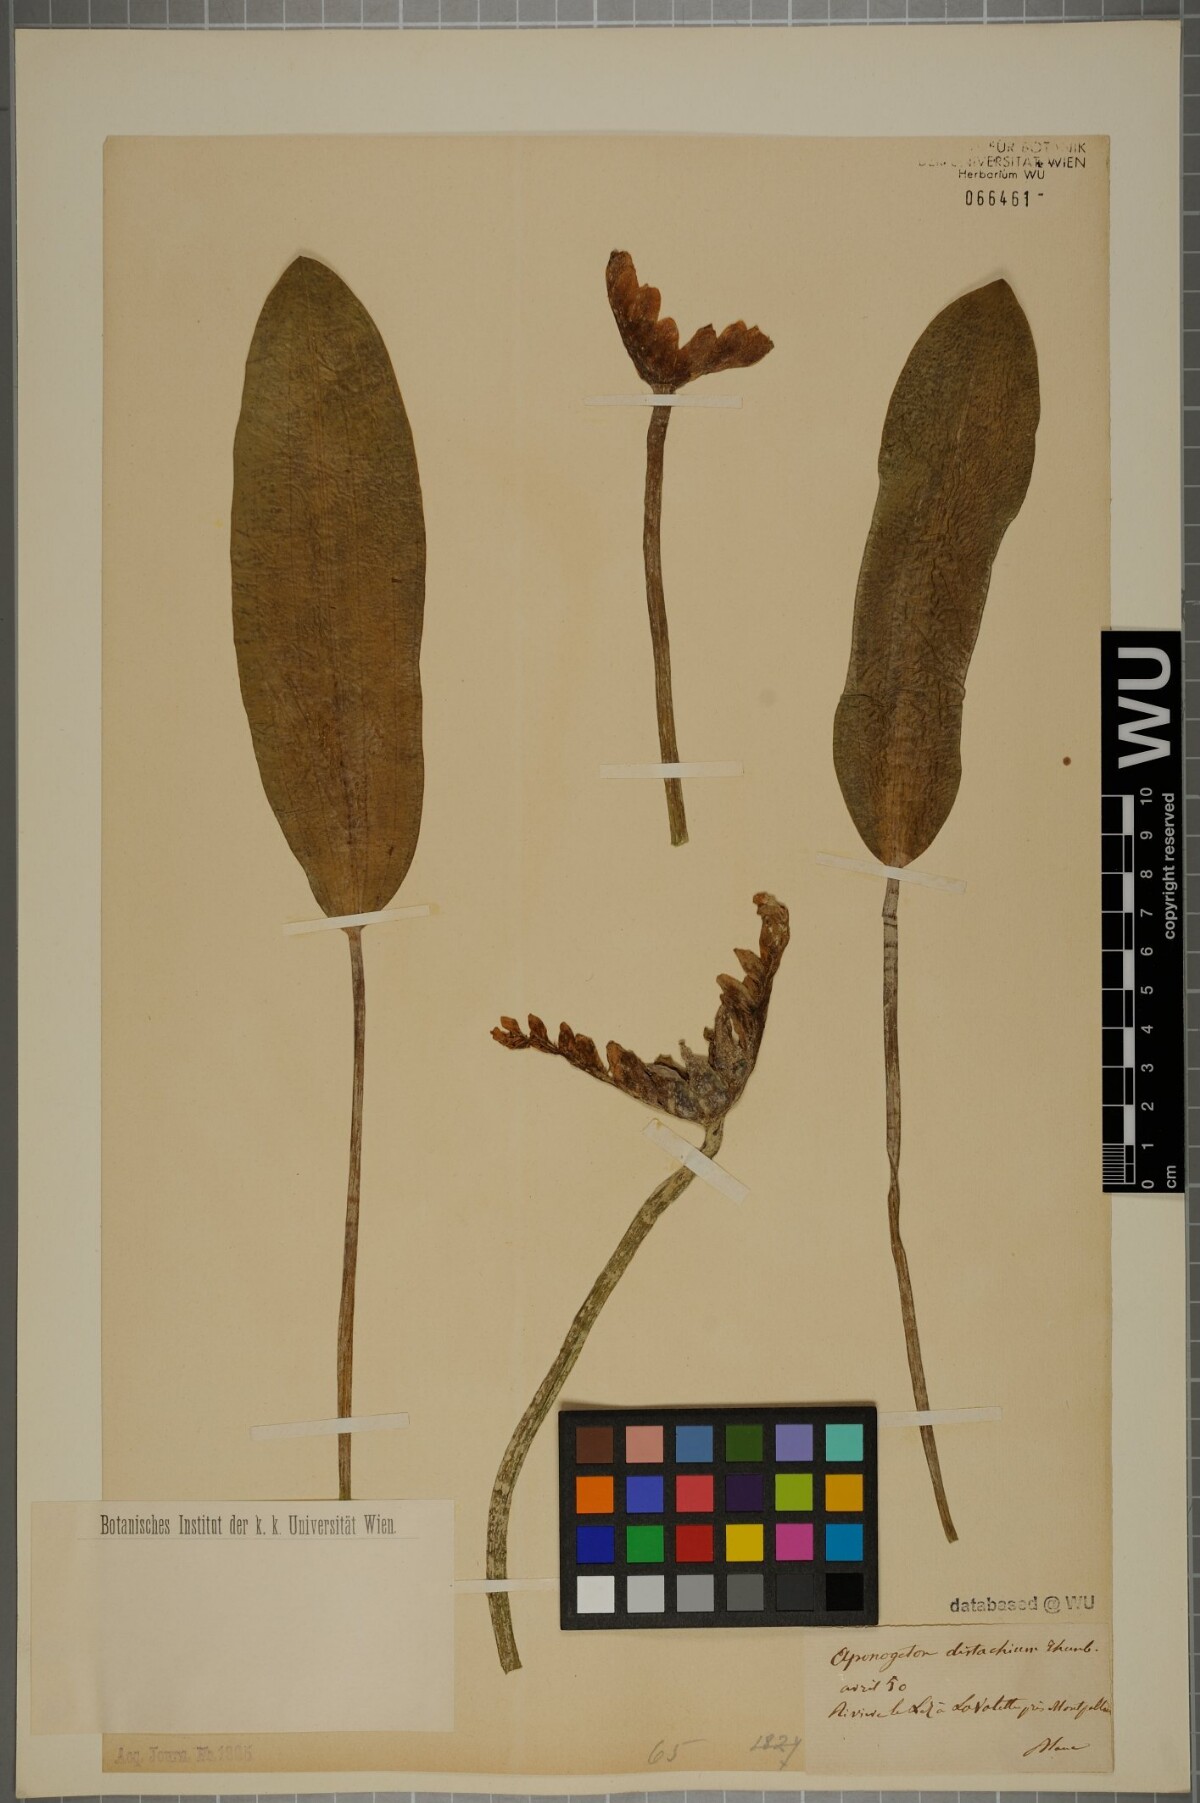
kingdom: Plantae
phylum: Tracheophyta
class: Liliopsida
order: Alismatales
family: Aponogetonaceae
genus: Aponogeton
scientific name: Aponogeton distachyos
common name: Cape-pondweed
